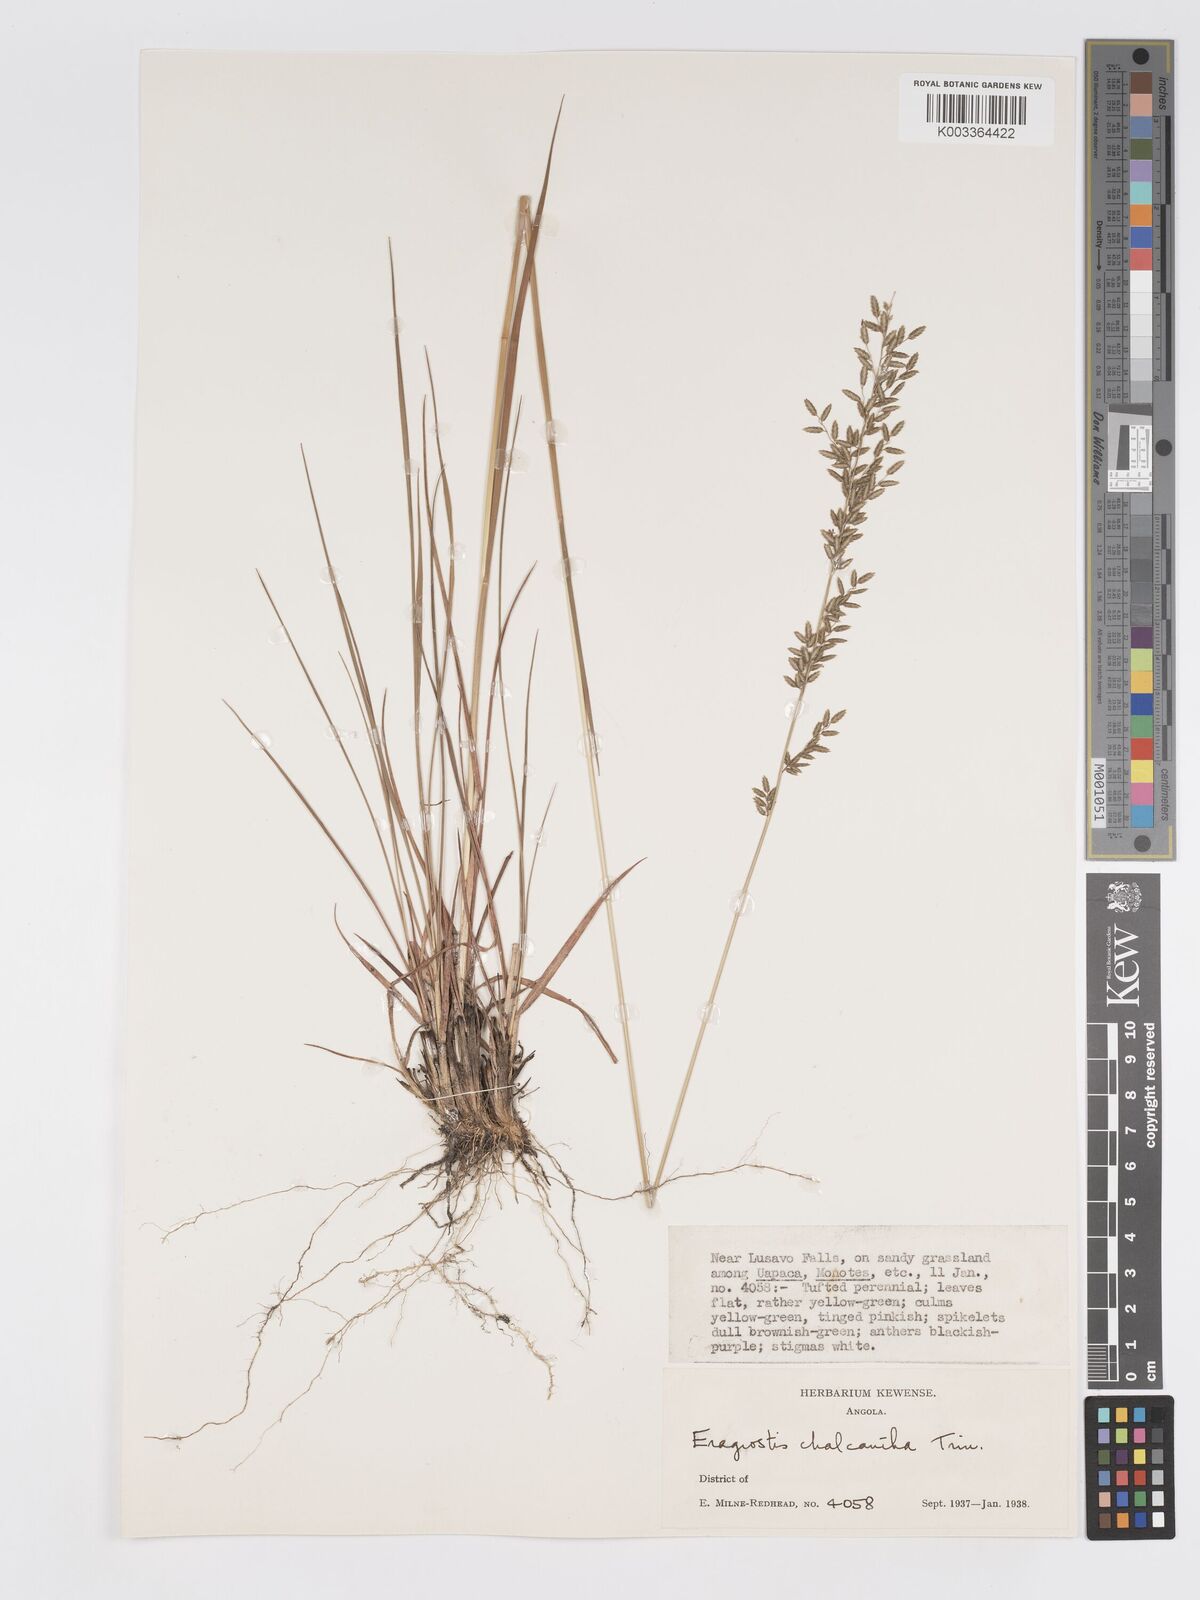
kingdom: Plantae
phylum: Tracheophyta
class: Liliopsida
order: Poales
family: Poaceae
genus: Eragrostis
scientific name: Eragrostis racemosa
